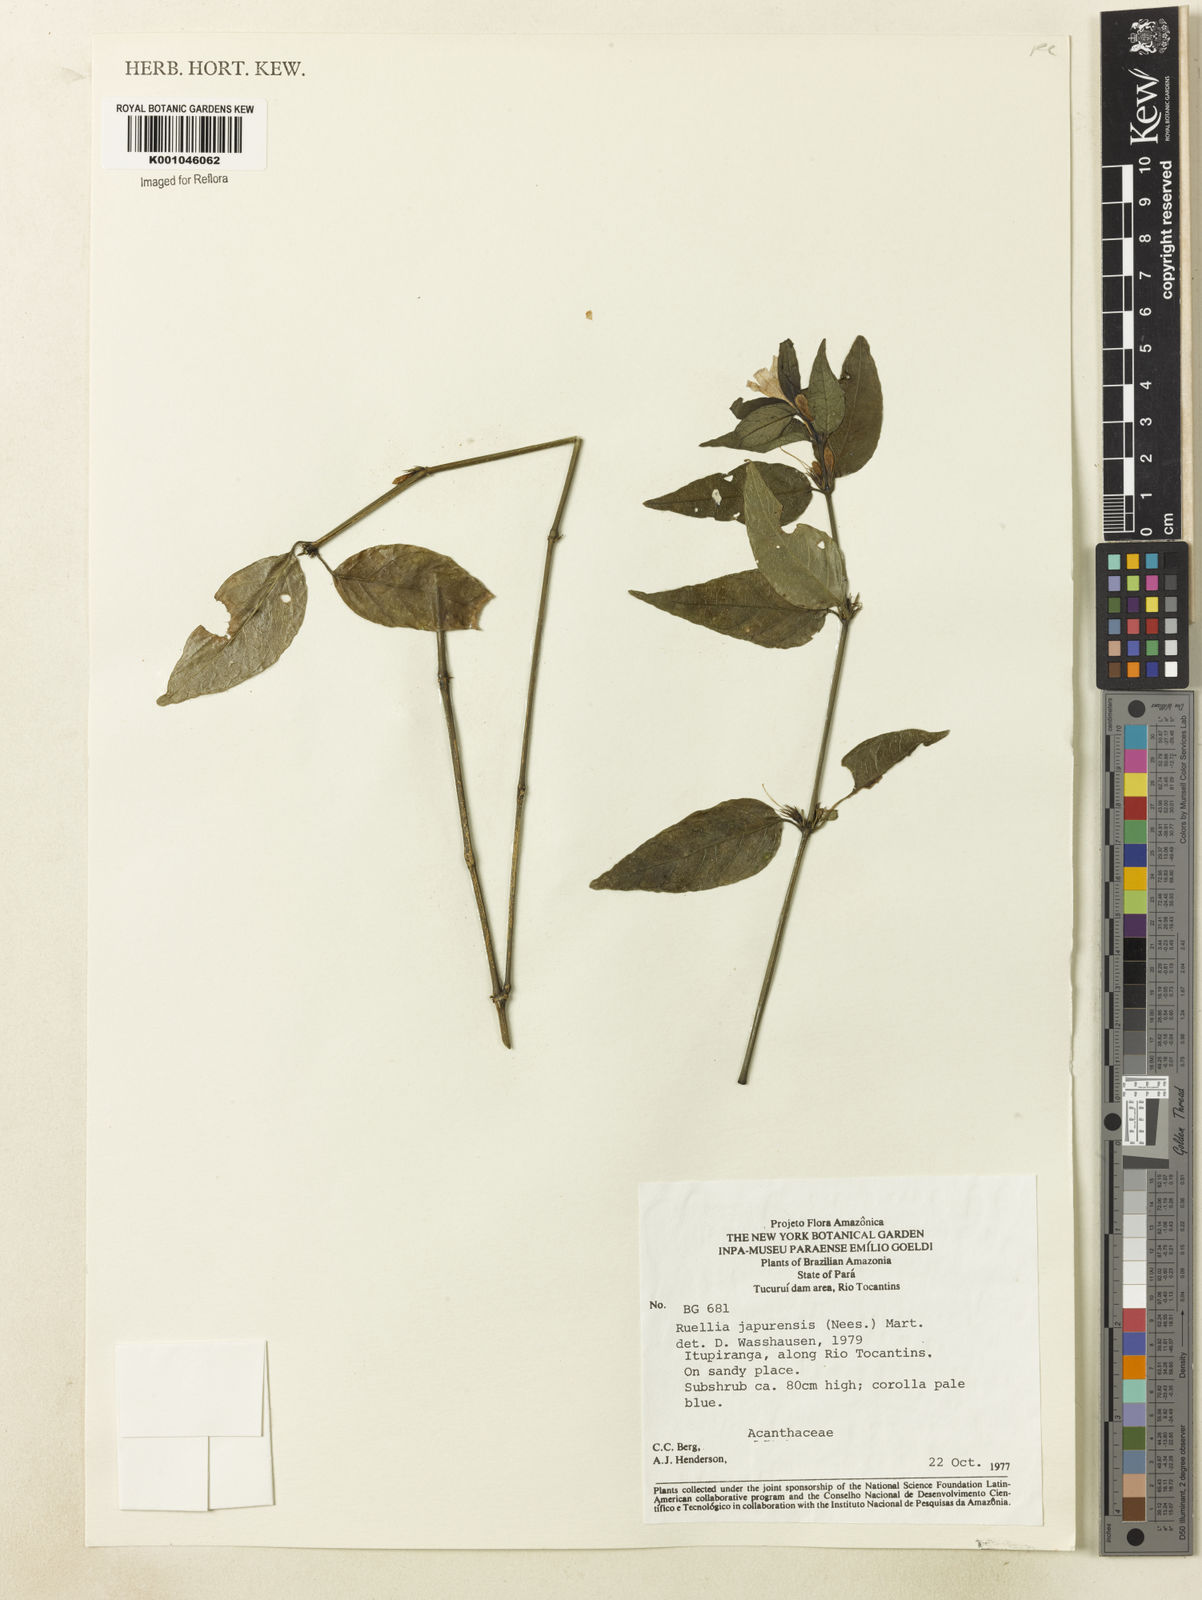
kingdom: Plantae
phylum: Tracheophyta
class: Magnoliopsida
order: Lamiales
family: Acanthaceae
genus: Ruellia
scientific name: Ruellia japurensis
